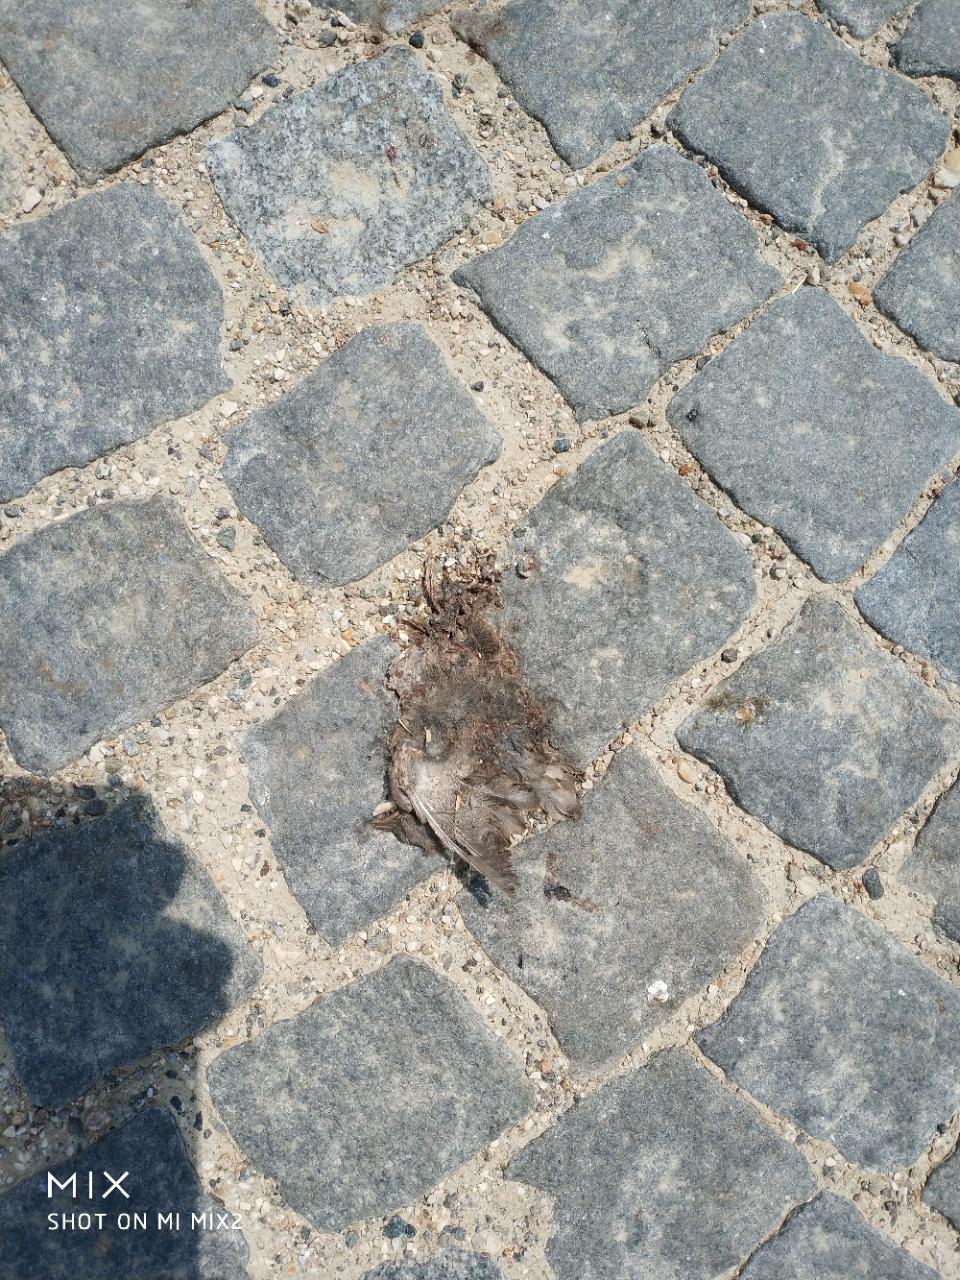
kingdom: Animalia
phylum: Chordata
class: Aves
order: Passeriformes
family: Passeridae
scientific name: Passeridae
